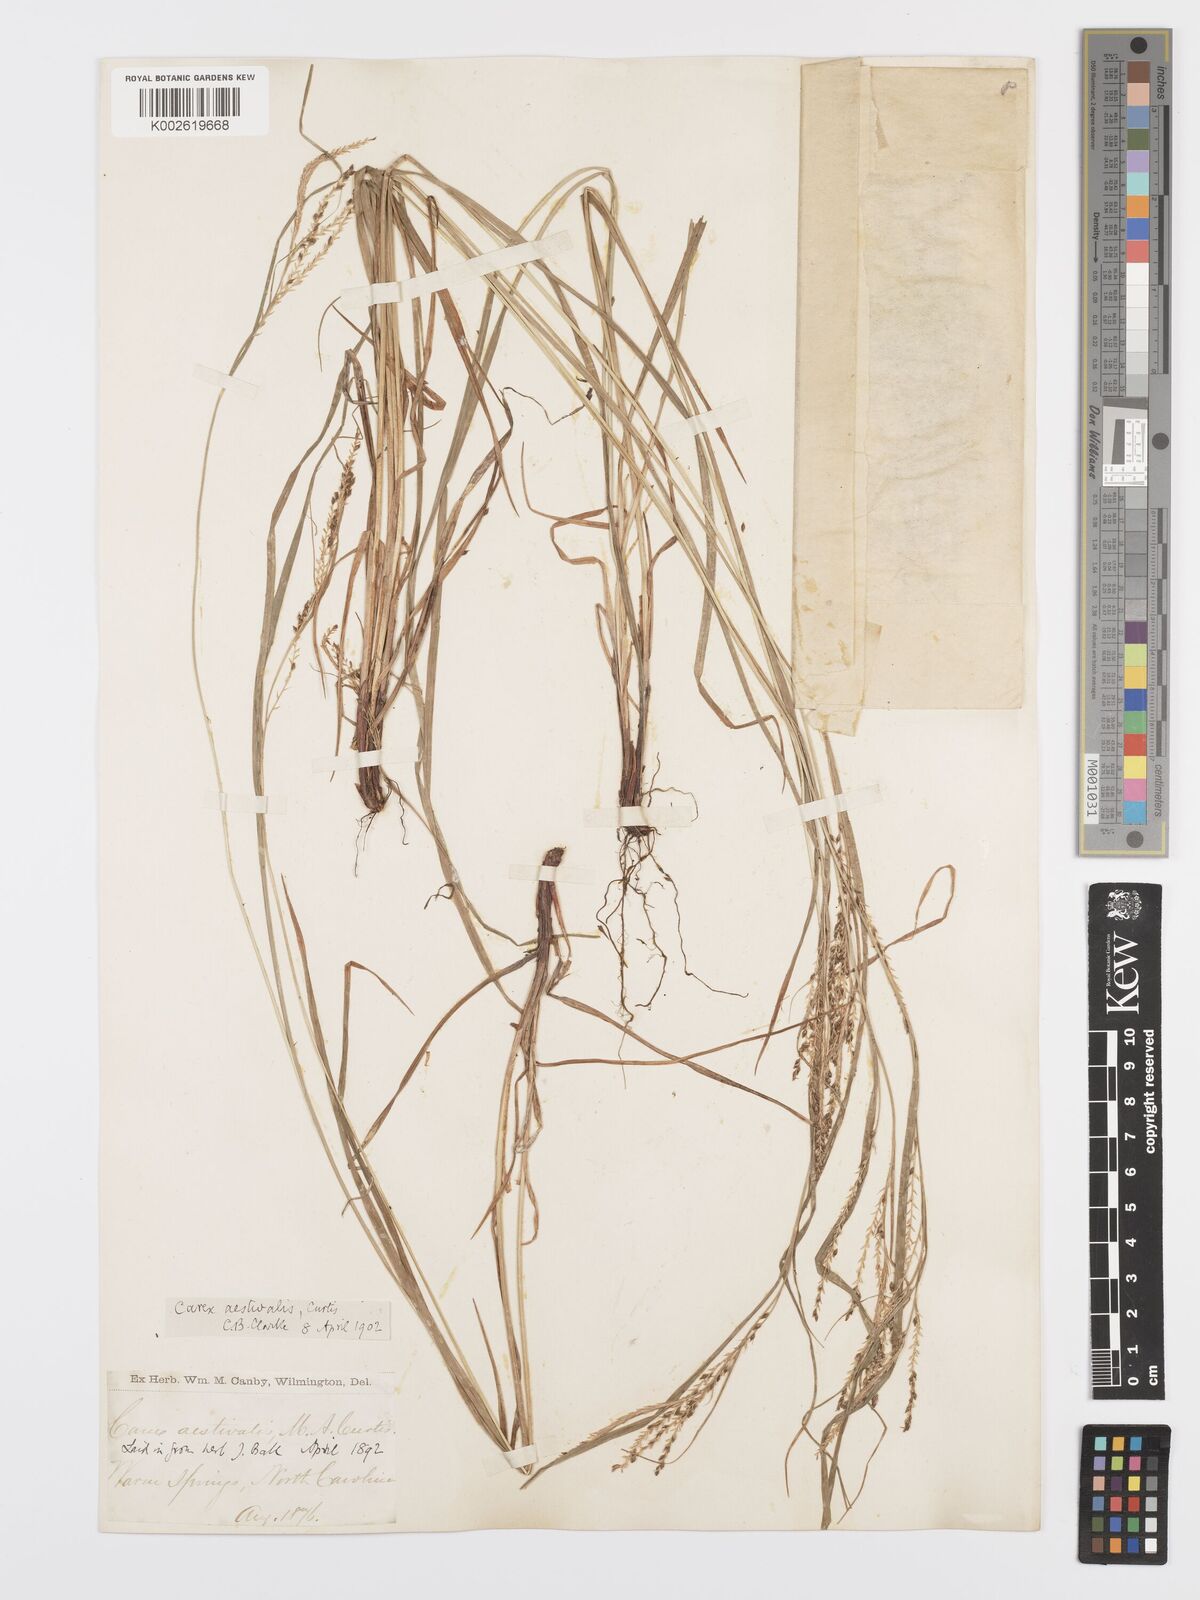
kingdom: Plantae
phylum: Tracheophyta
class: Liliopsida
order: Poales
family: Cyperaceae
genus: Carex
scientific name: Carex aestivalis
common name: Summer sedge
